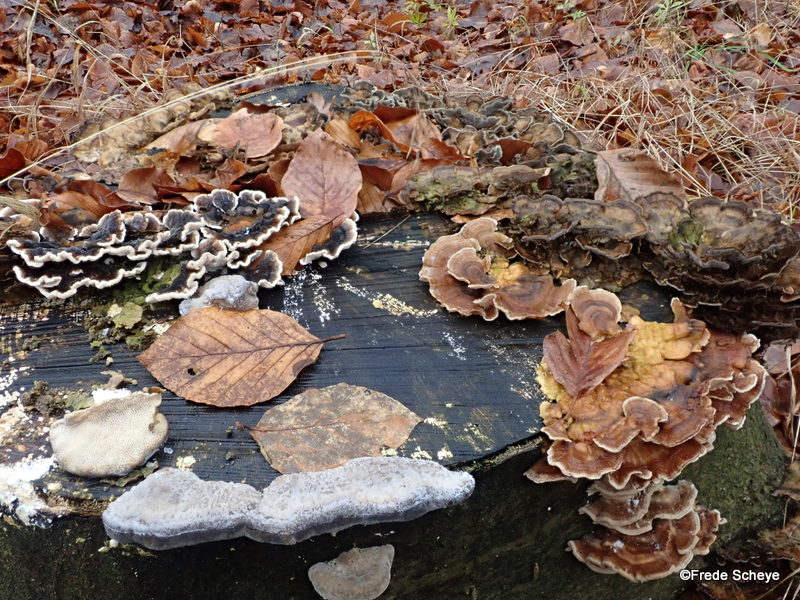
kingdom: Fungi
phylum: Basidiomycota
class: Agaricomycetes
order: Polyporales
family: Polyporaceae
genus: Trametes
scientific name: Trametes versicolor
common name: broget læderporesvamp
